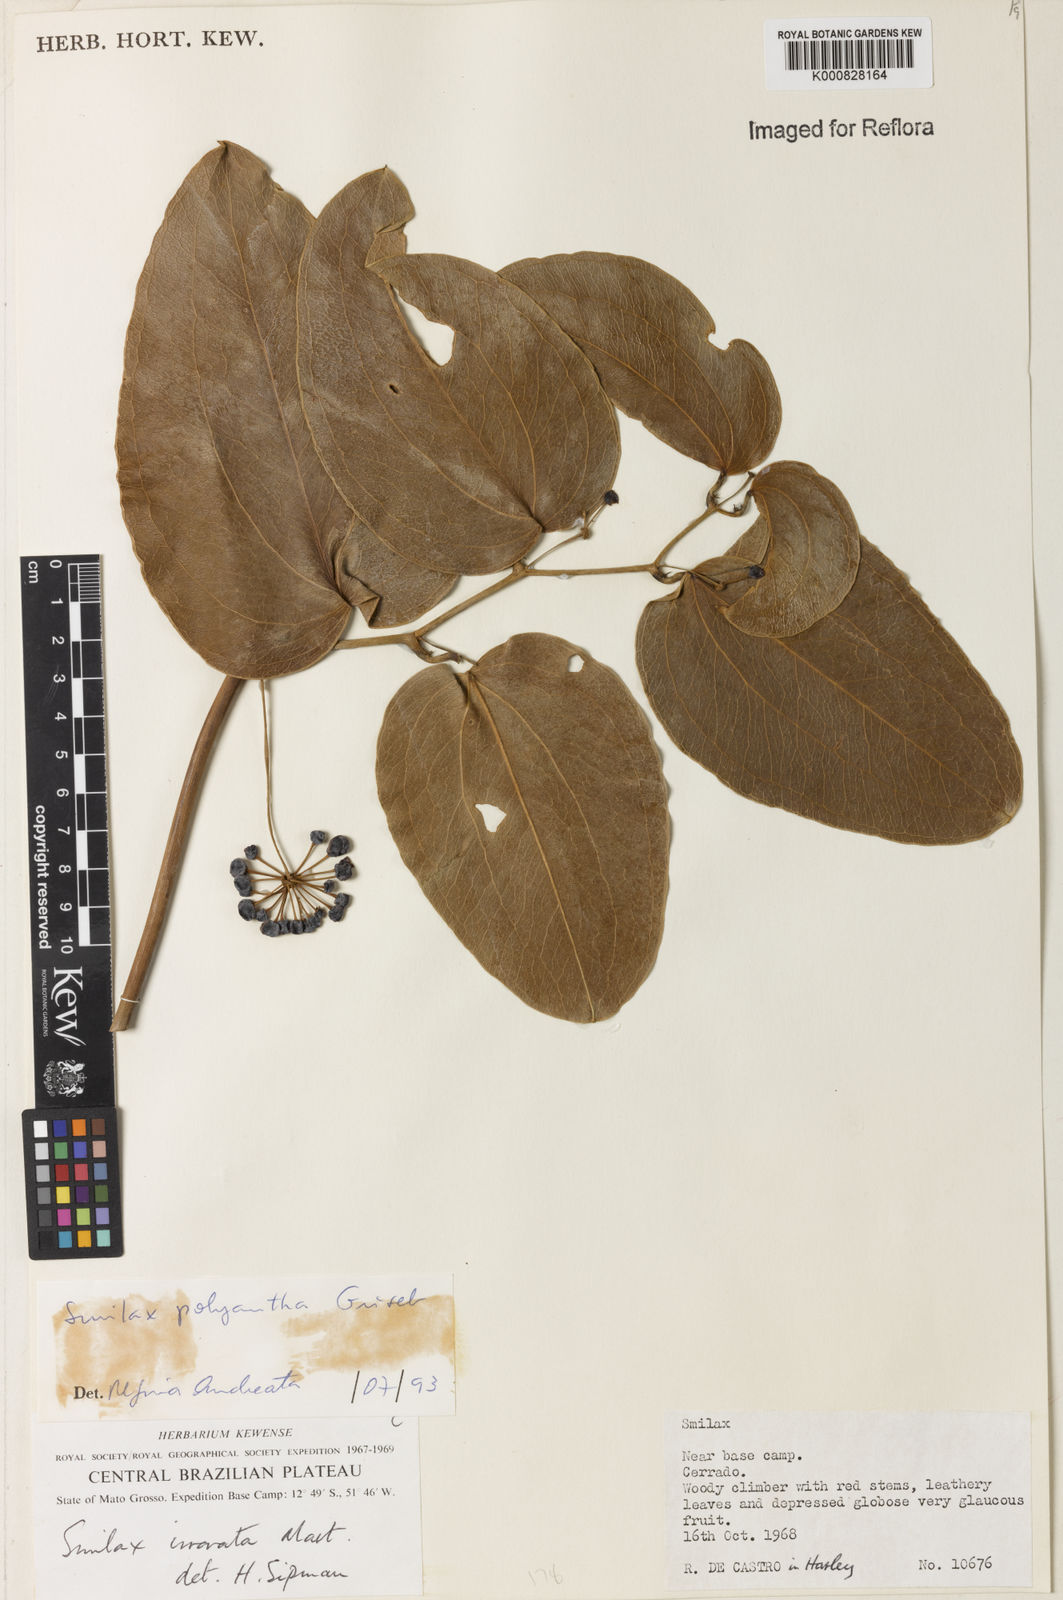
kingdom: Plantae
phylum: Tracheophyta
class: Liliopsida
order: Liliales
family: Smilacaceae
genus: Smilax
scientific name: Smilax polyantha
